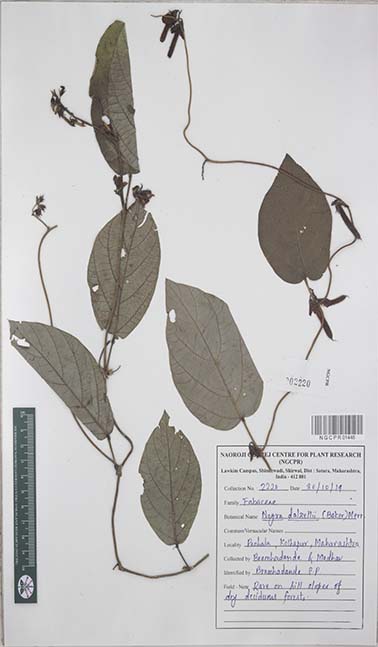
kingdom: Plantae
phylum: Tracheophyta
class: Magnoliopsida
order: Fabales
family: Fabaceae
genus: Nogra
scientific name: Nogra dalzellii
